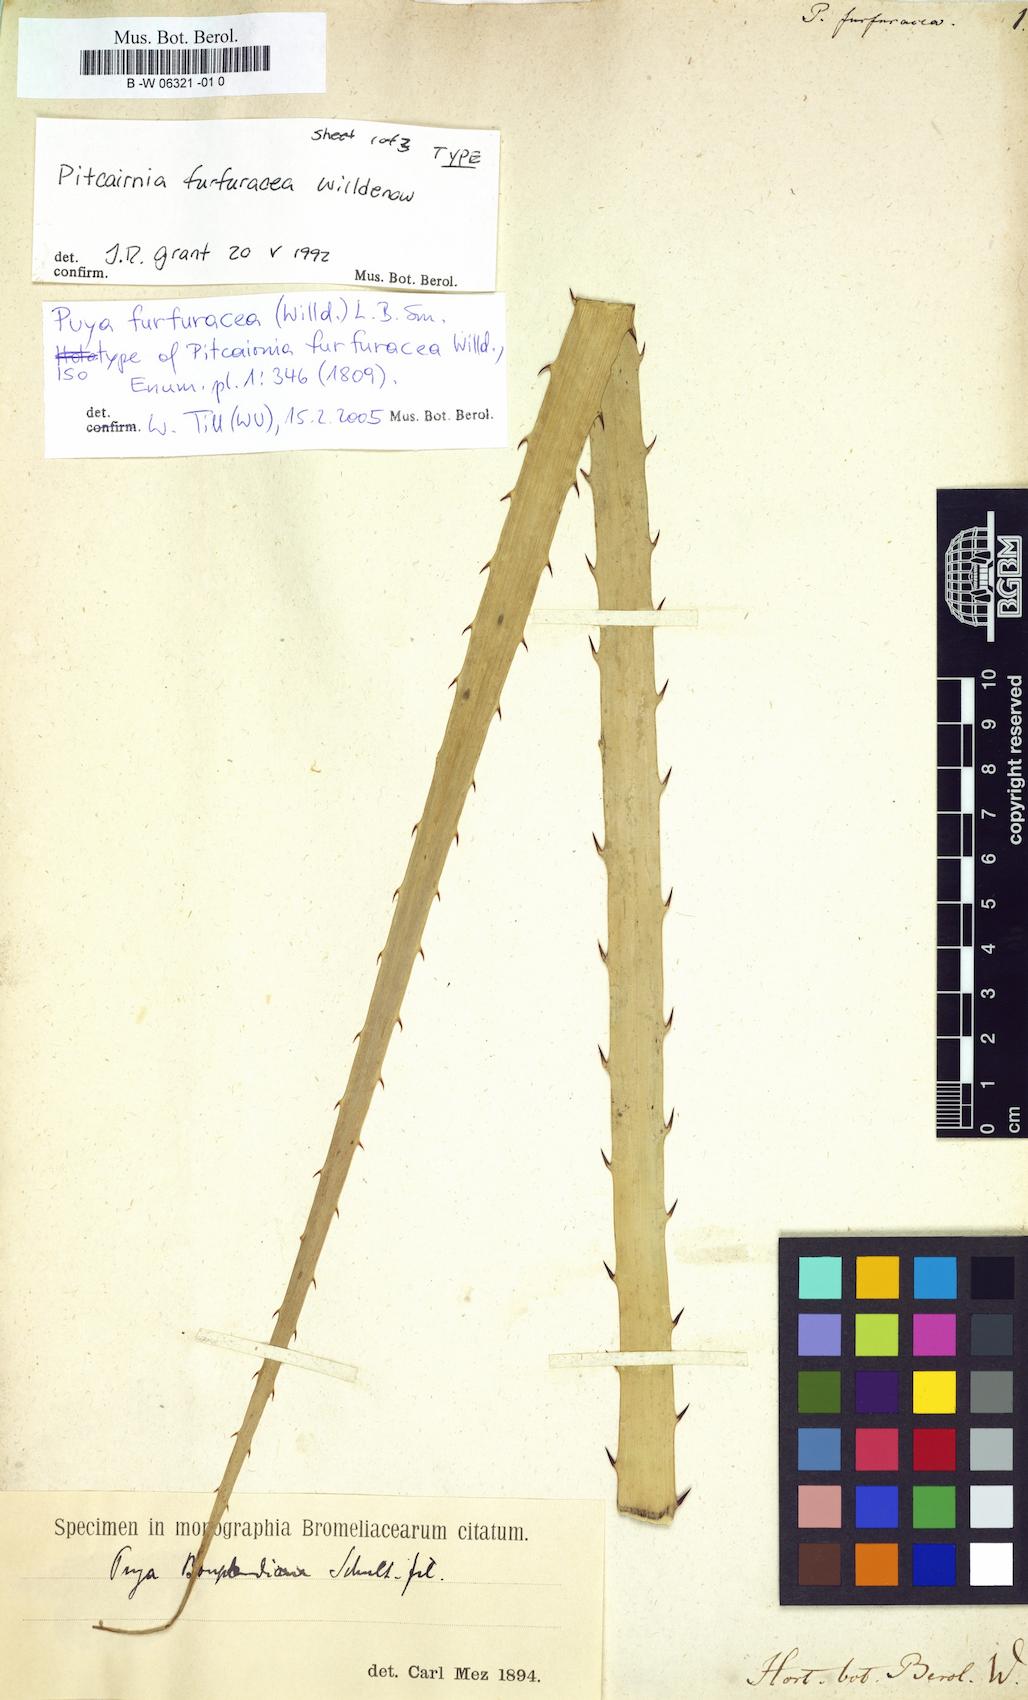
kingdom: Plantae
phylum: Tracheophyta
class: Liliopsida
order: Poales
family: Bromeliaceae
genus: Puya
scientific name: Puya furfuracea
